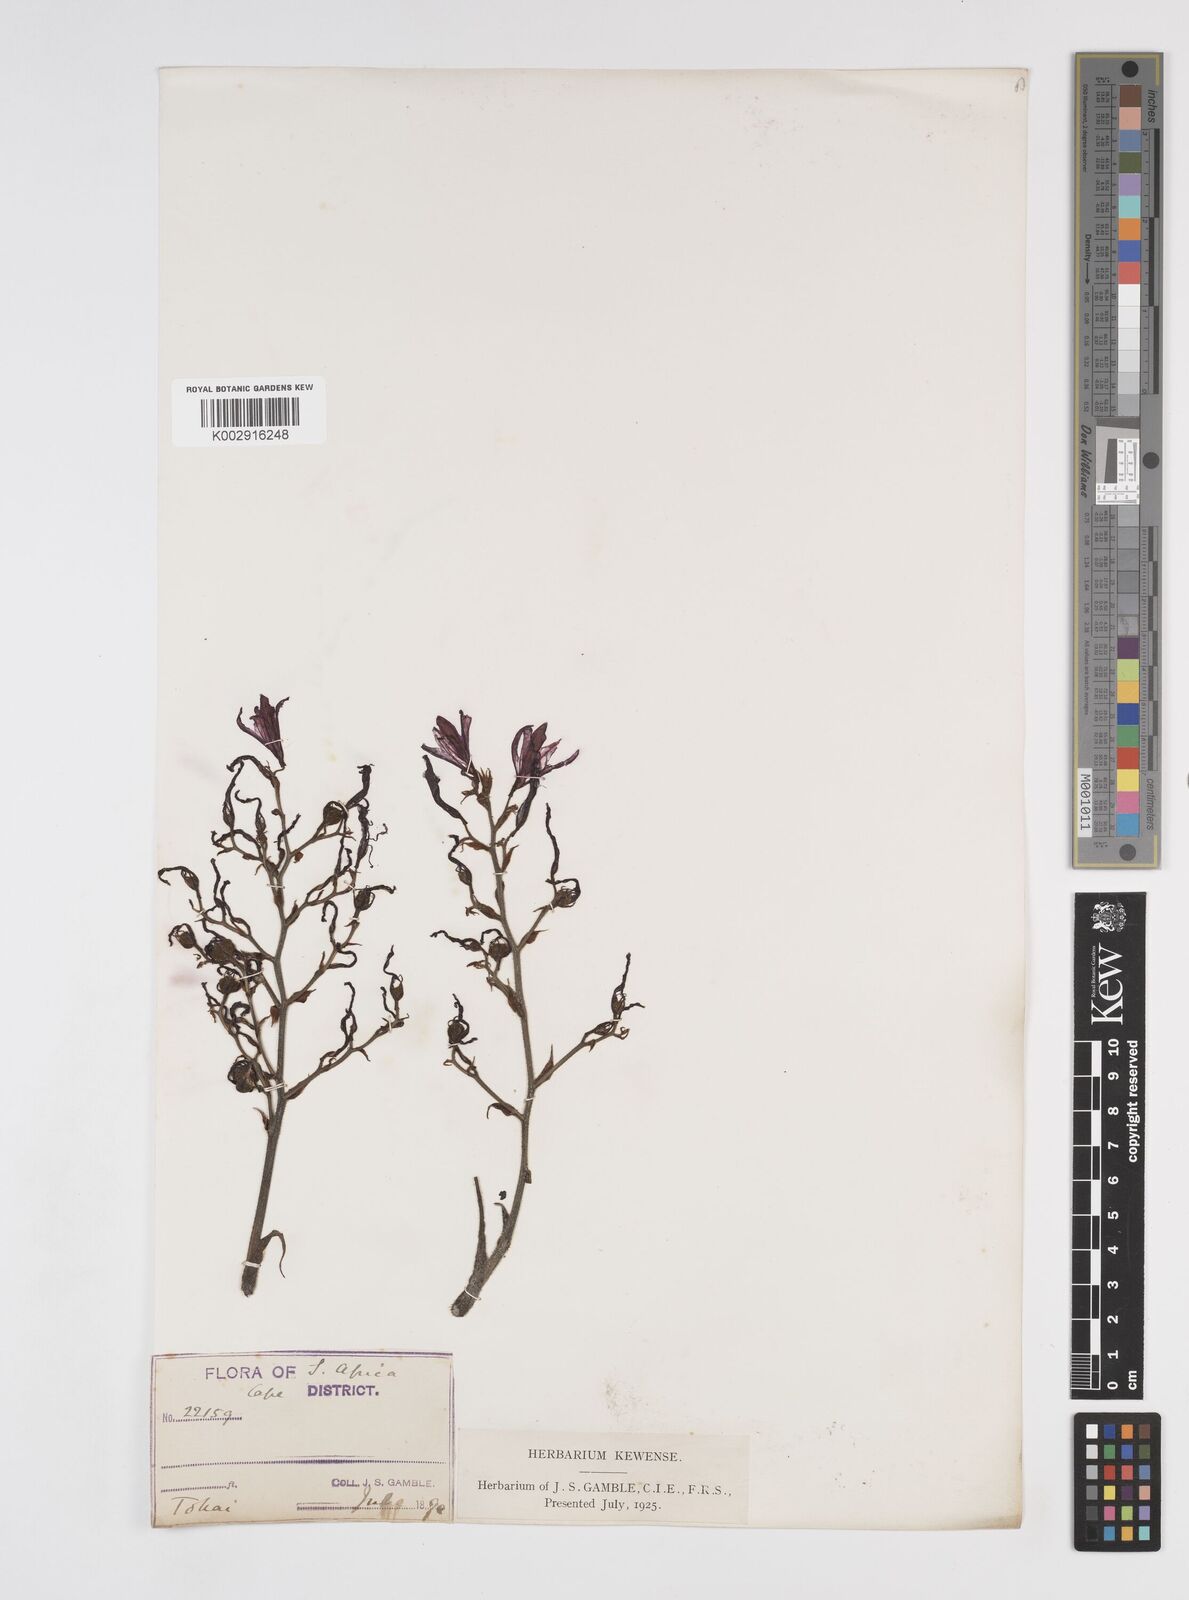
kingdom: Plantae
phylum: Tracheophyta
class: Liliopsida
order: Commelinales
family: Haemodoraceae
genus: Wachendorfia
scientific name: Wachendorfia paniculata
